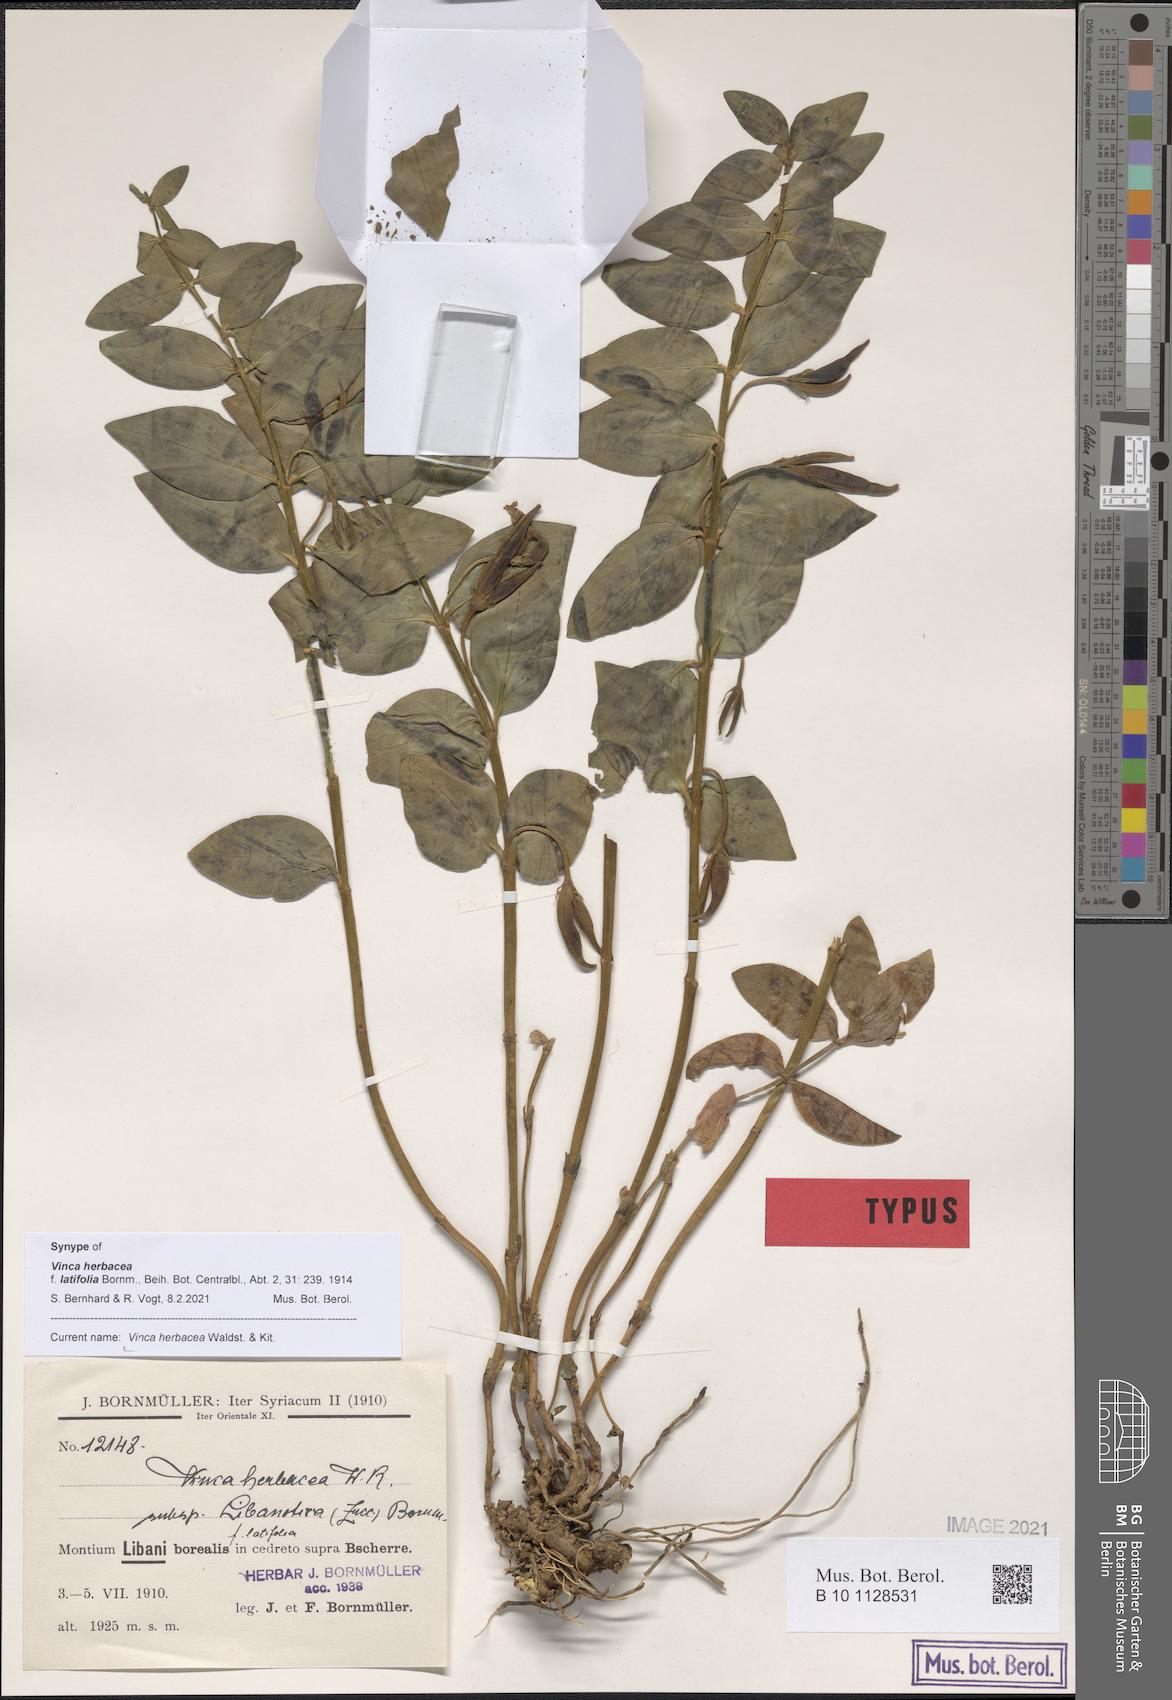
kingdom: Plantae
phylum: Tracheophyta
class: Magnoliopsida
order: Gentianales
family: Apocynaceae
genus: Vinca
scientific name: Vinca herbacea
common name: Herbaceous periwinkle
